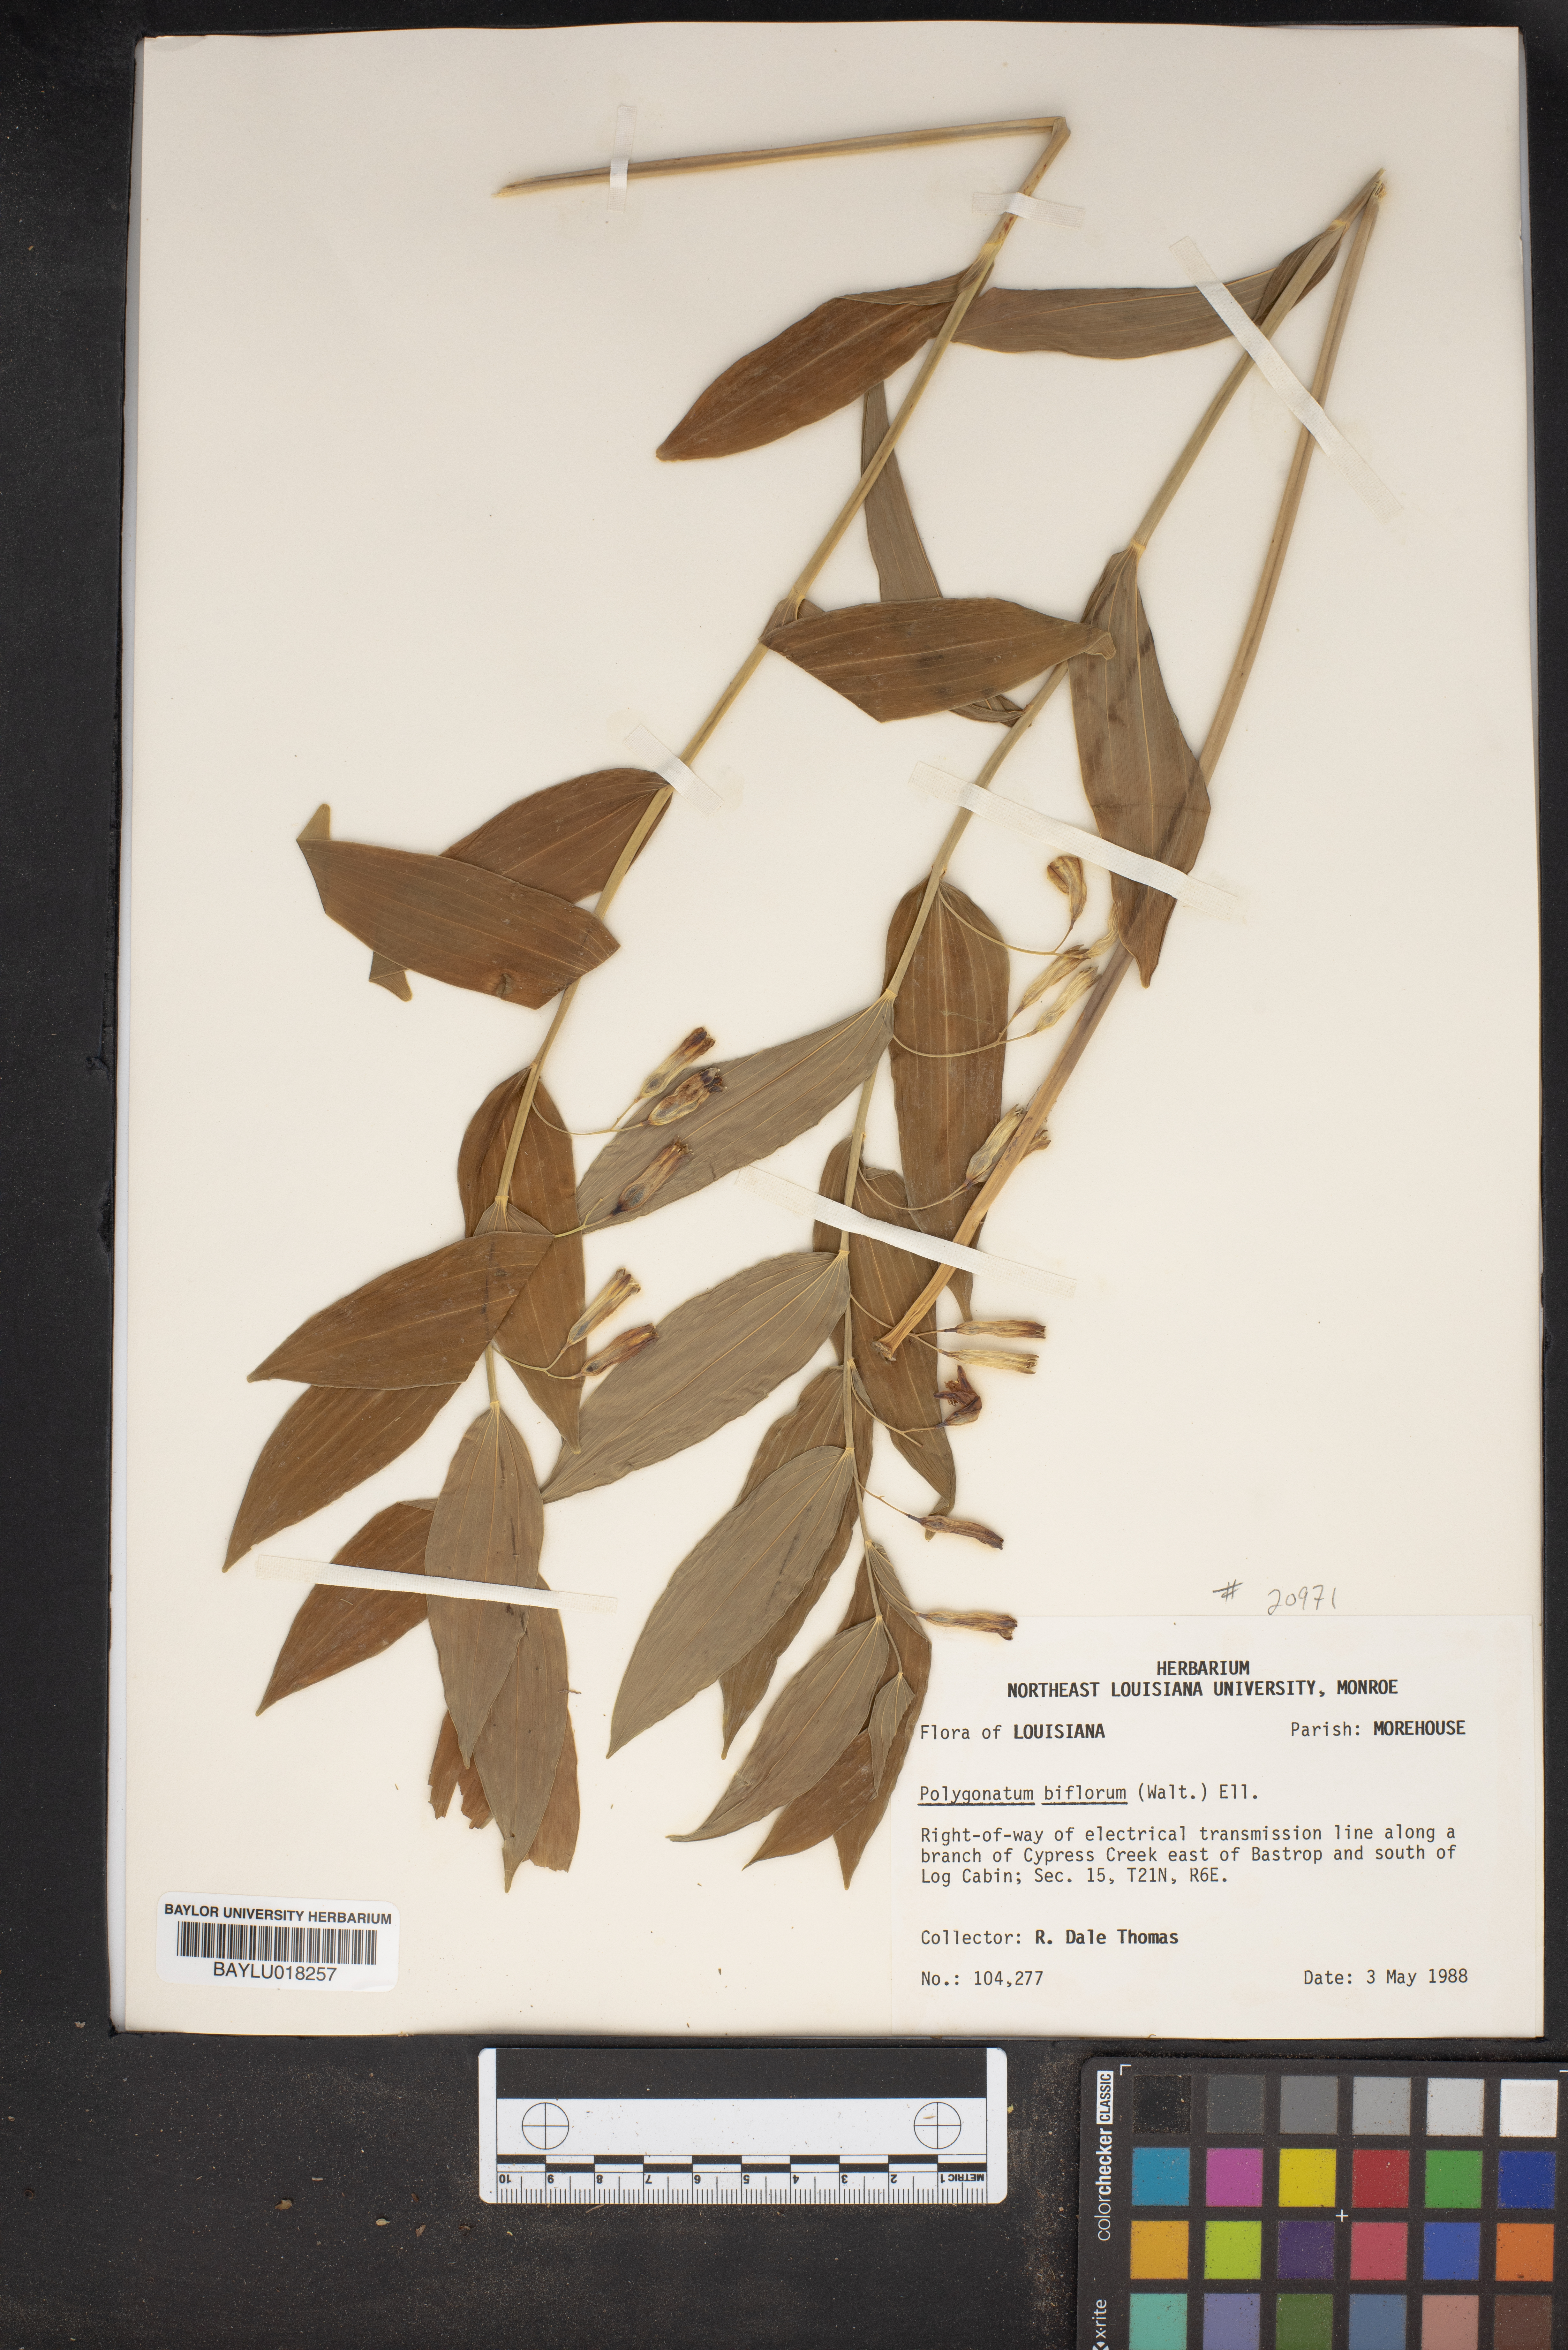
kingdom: Plantae
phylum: Tracheophyta
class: Liliopsida
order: Asparagales
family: Asparagaceae
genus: Polygonatum
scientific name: Polygonatum biflorum
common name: American solomon's-seal
